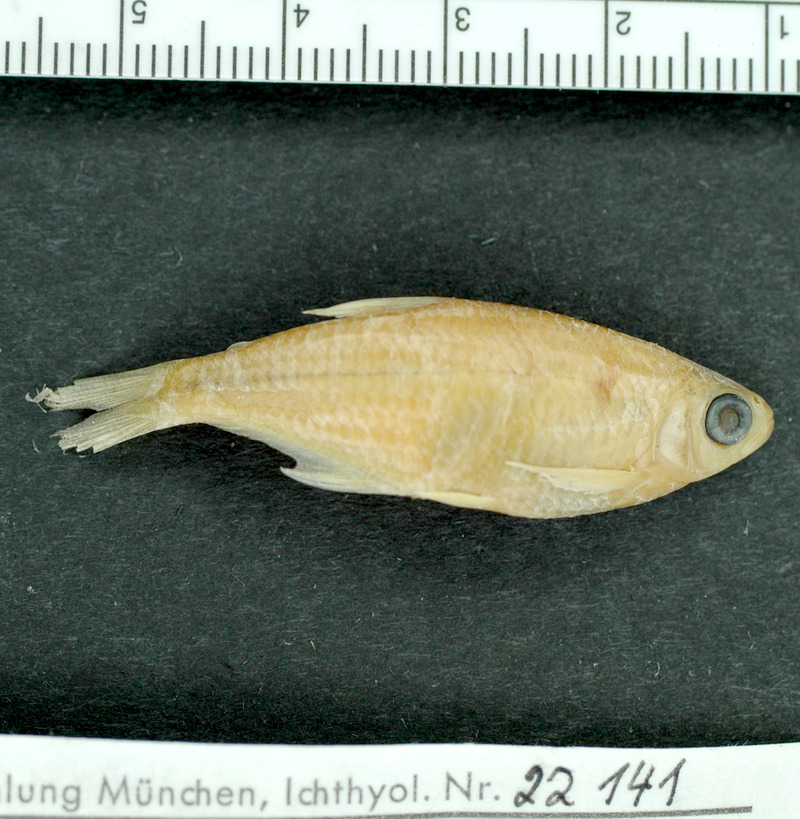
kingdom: Animalia
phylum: Chordata
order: Characiformes
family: Characidae
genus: Diapoma
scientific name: Diapoma terofali
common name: Tetra
